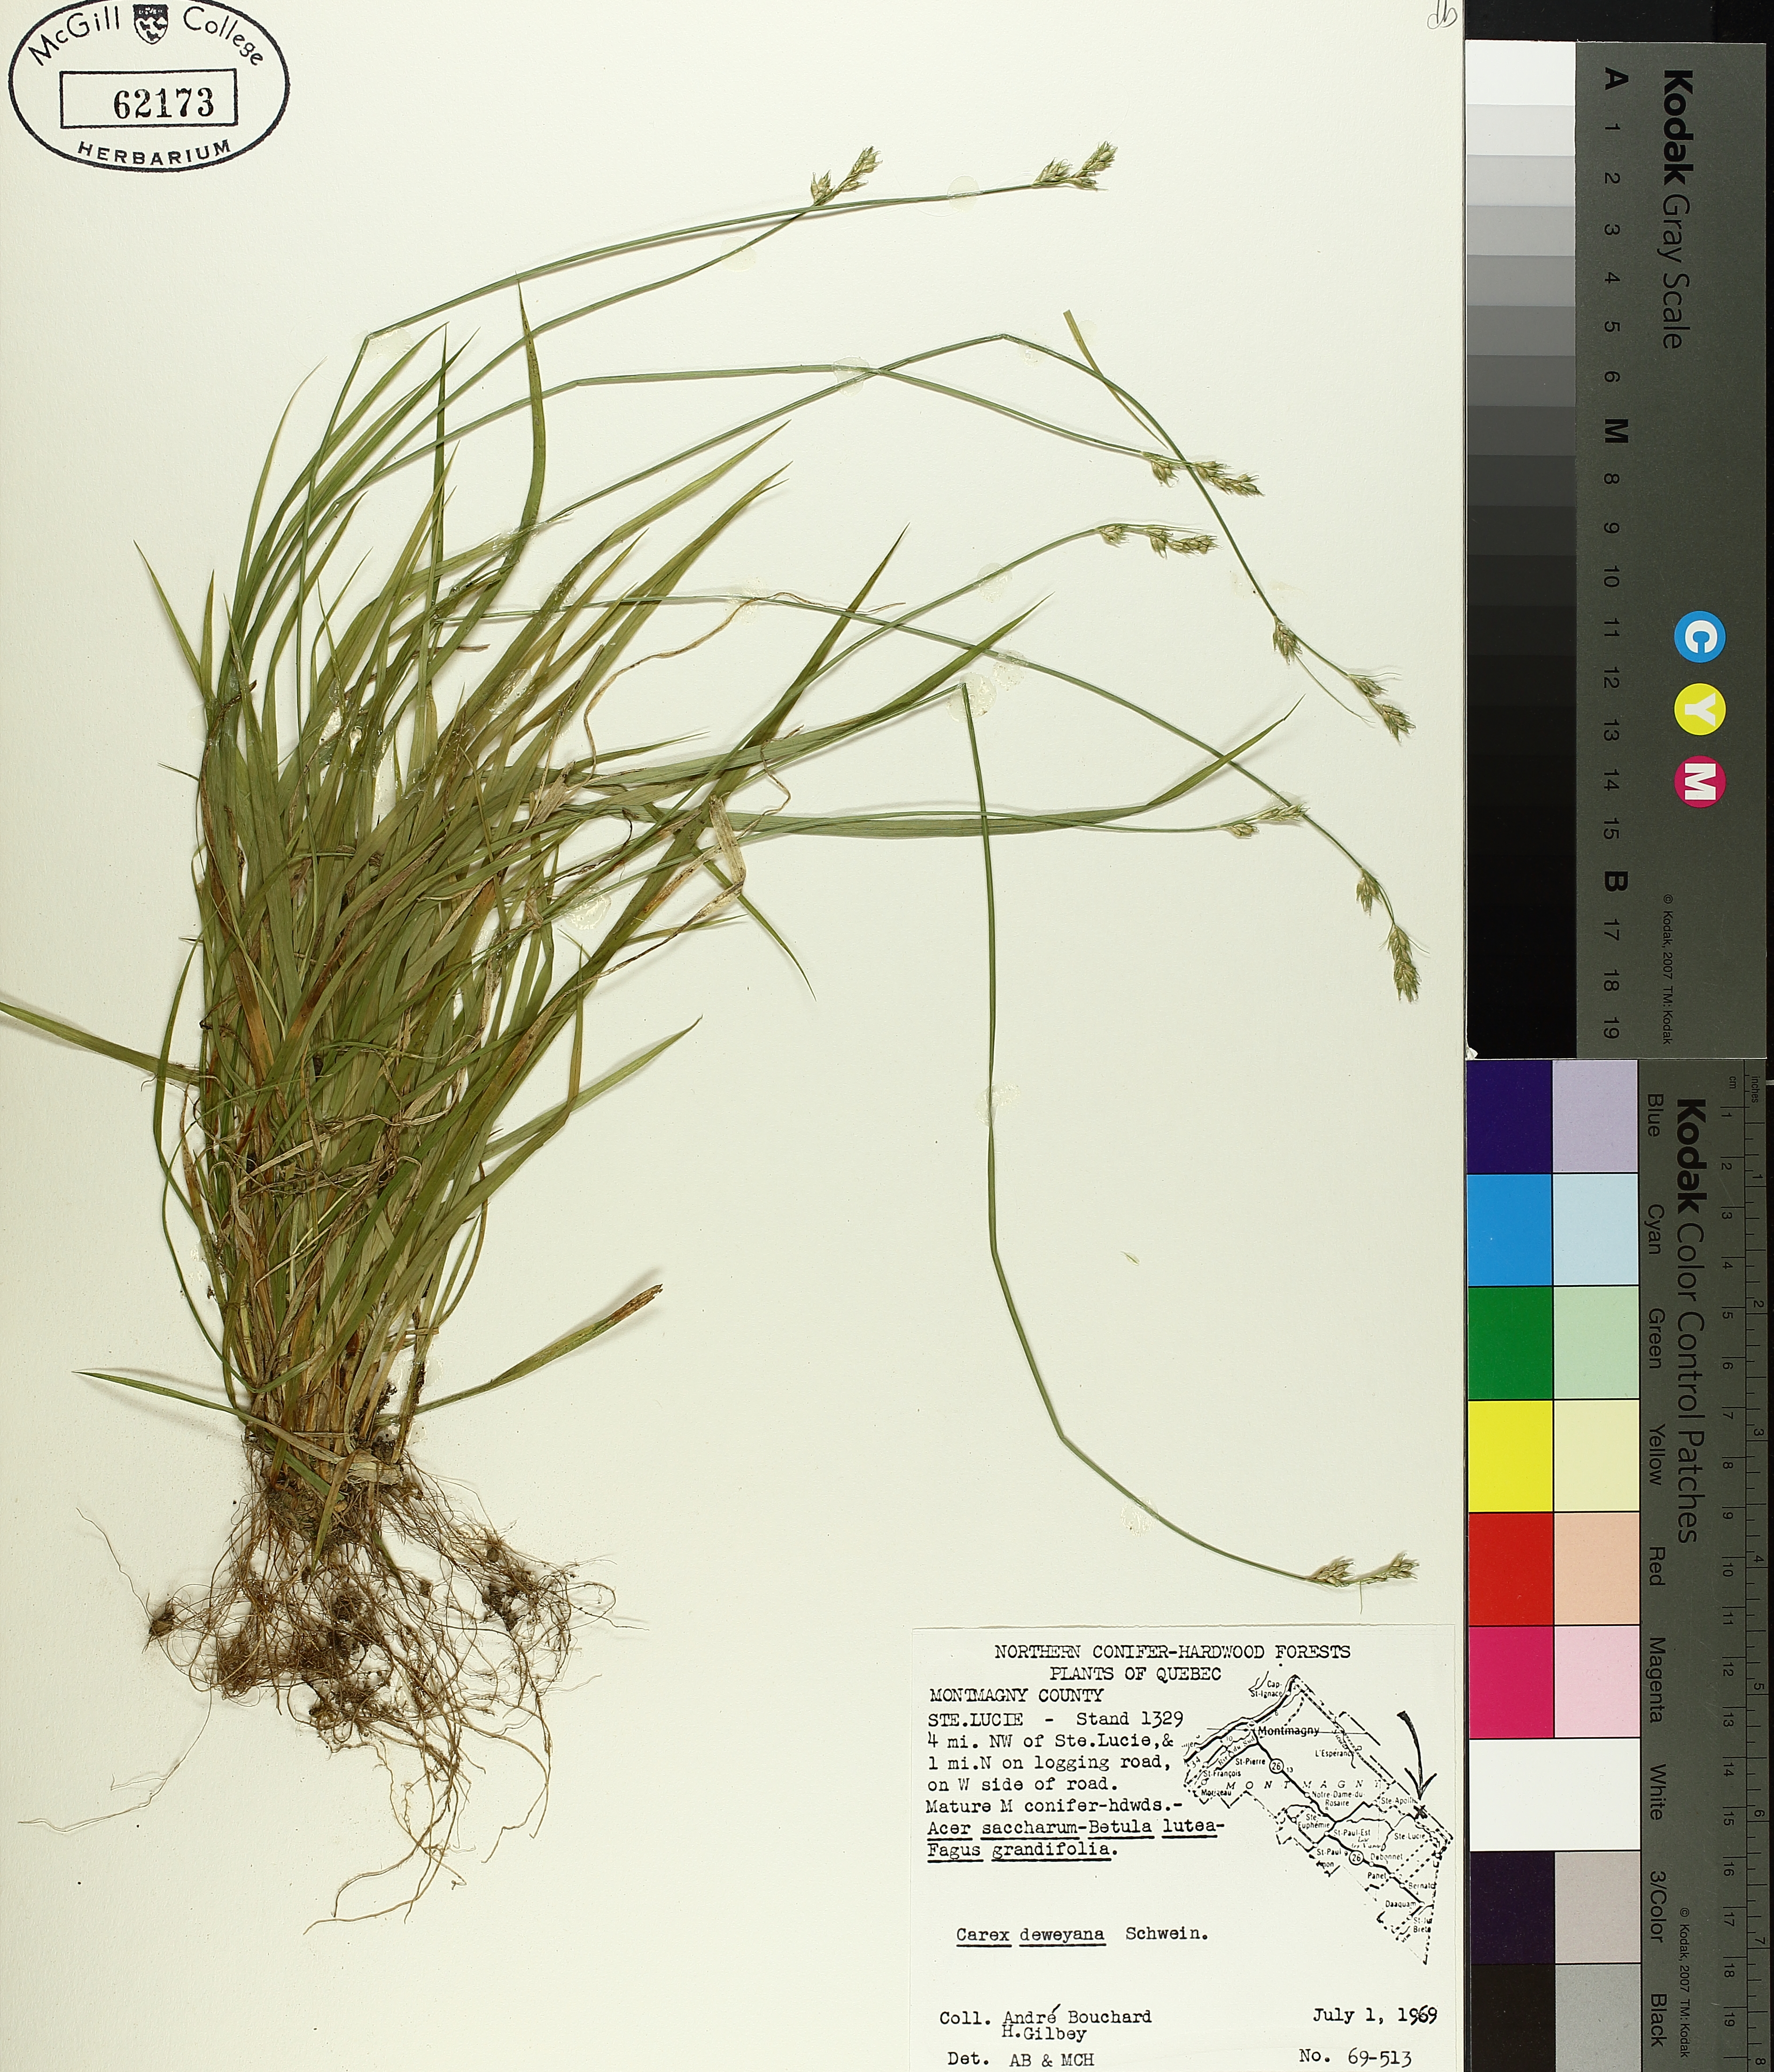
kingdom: Plantae
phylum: Tracheophyta
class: Liliopsida
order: Poales
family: Cyperaceae
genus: Carex
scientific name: Carex deweyana
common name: Dewey's sedge
